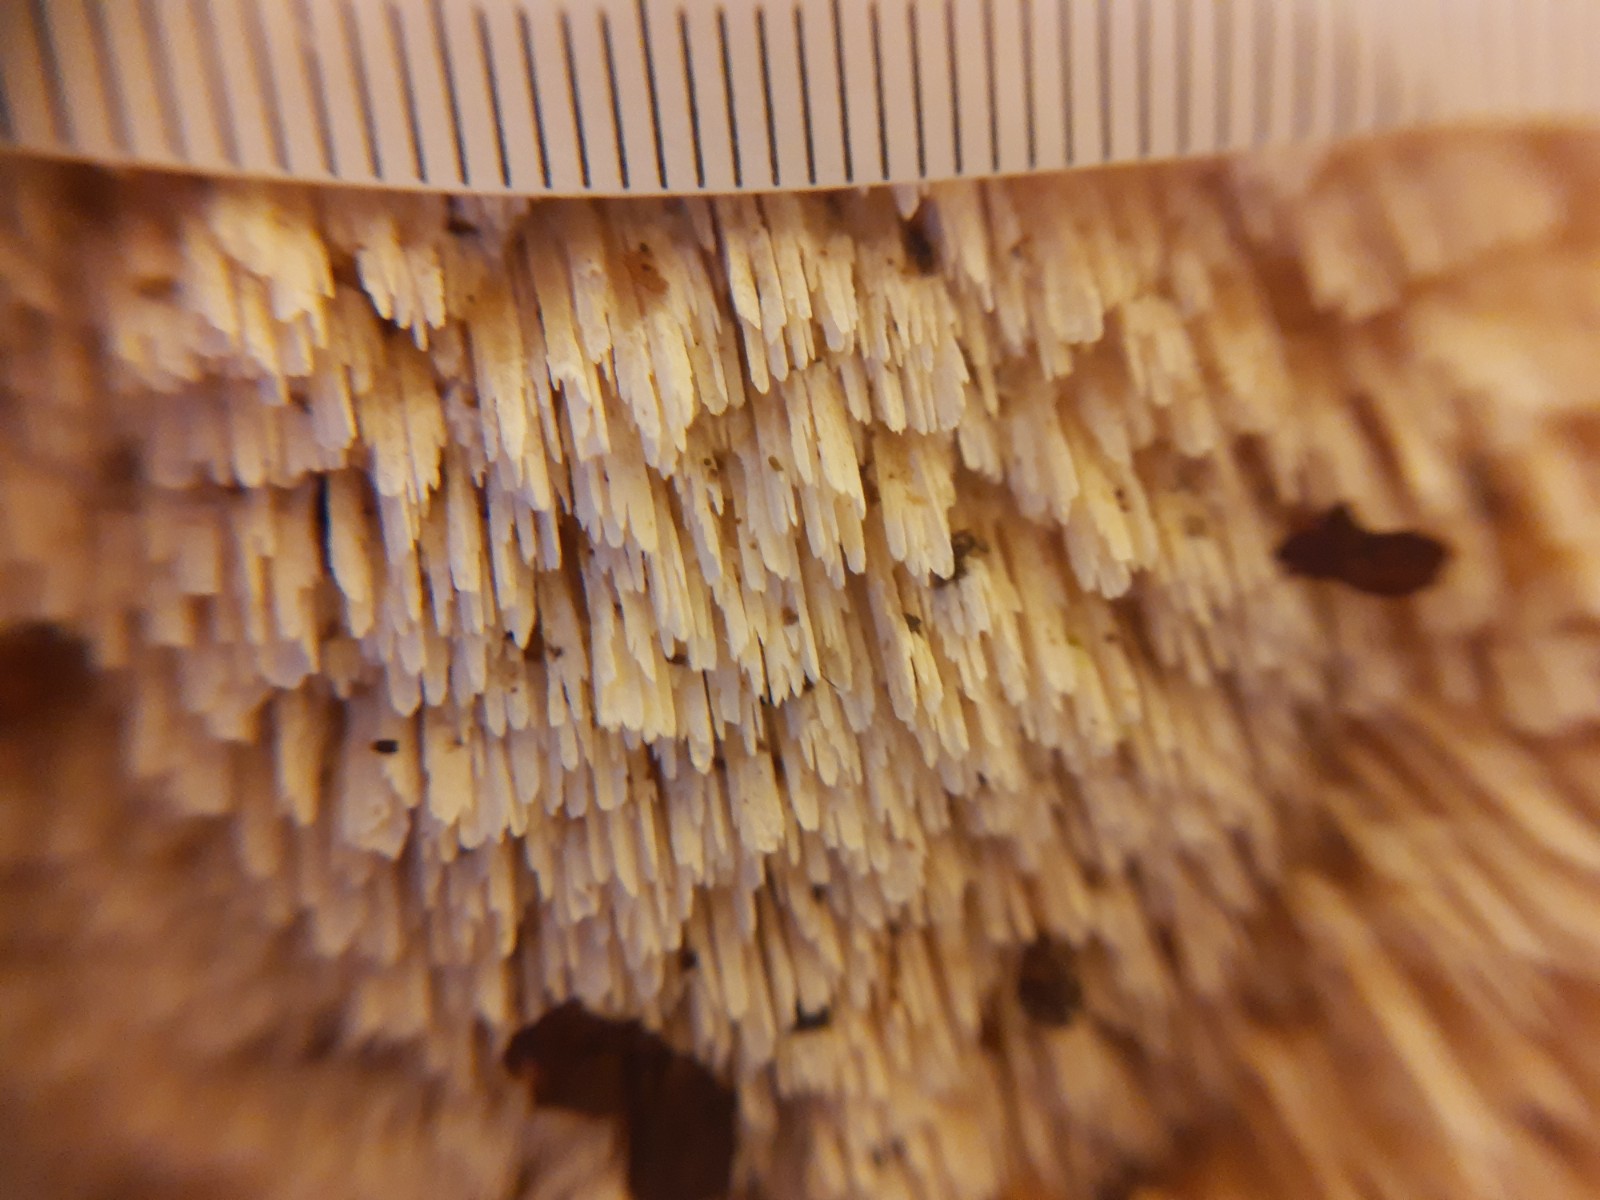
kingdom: Fungi
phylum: Basidiomycota
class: Agaricomycetes
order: Hymenochaetales
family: Schizoporaceae
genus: Schizopora
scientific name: Schizopora paradoxa
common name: hvid tandsvamp
